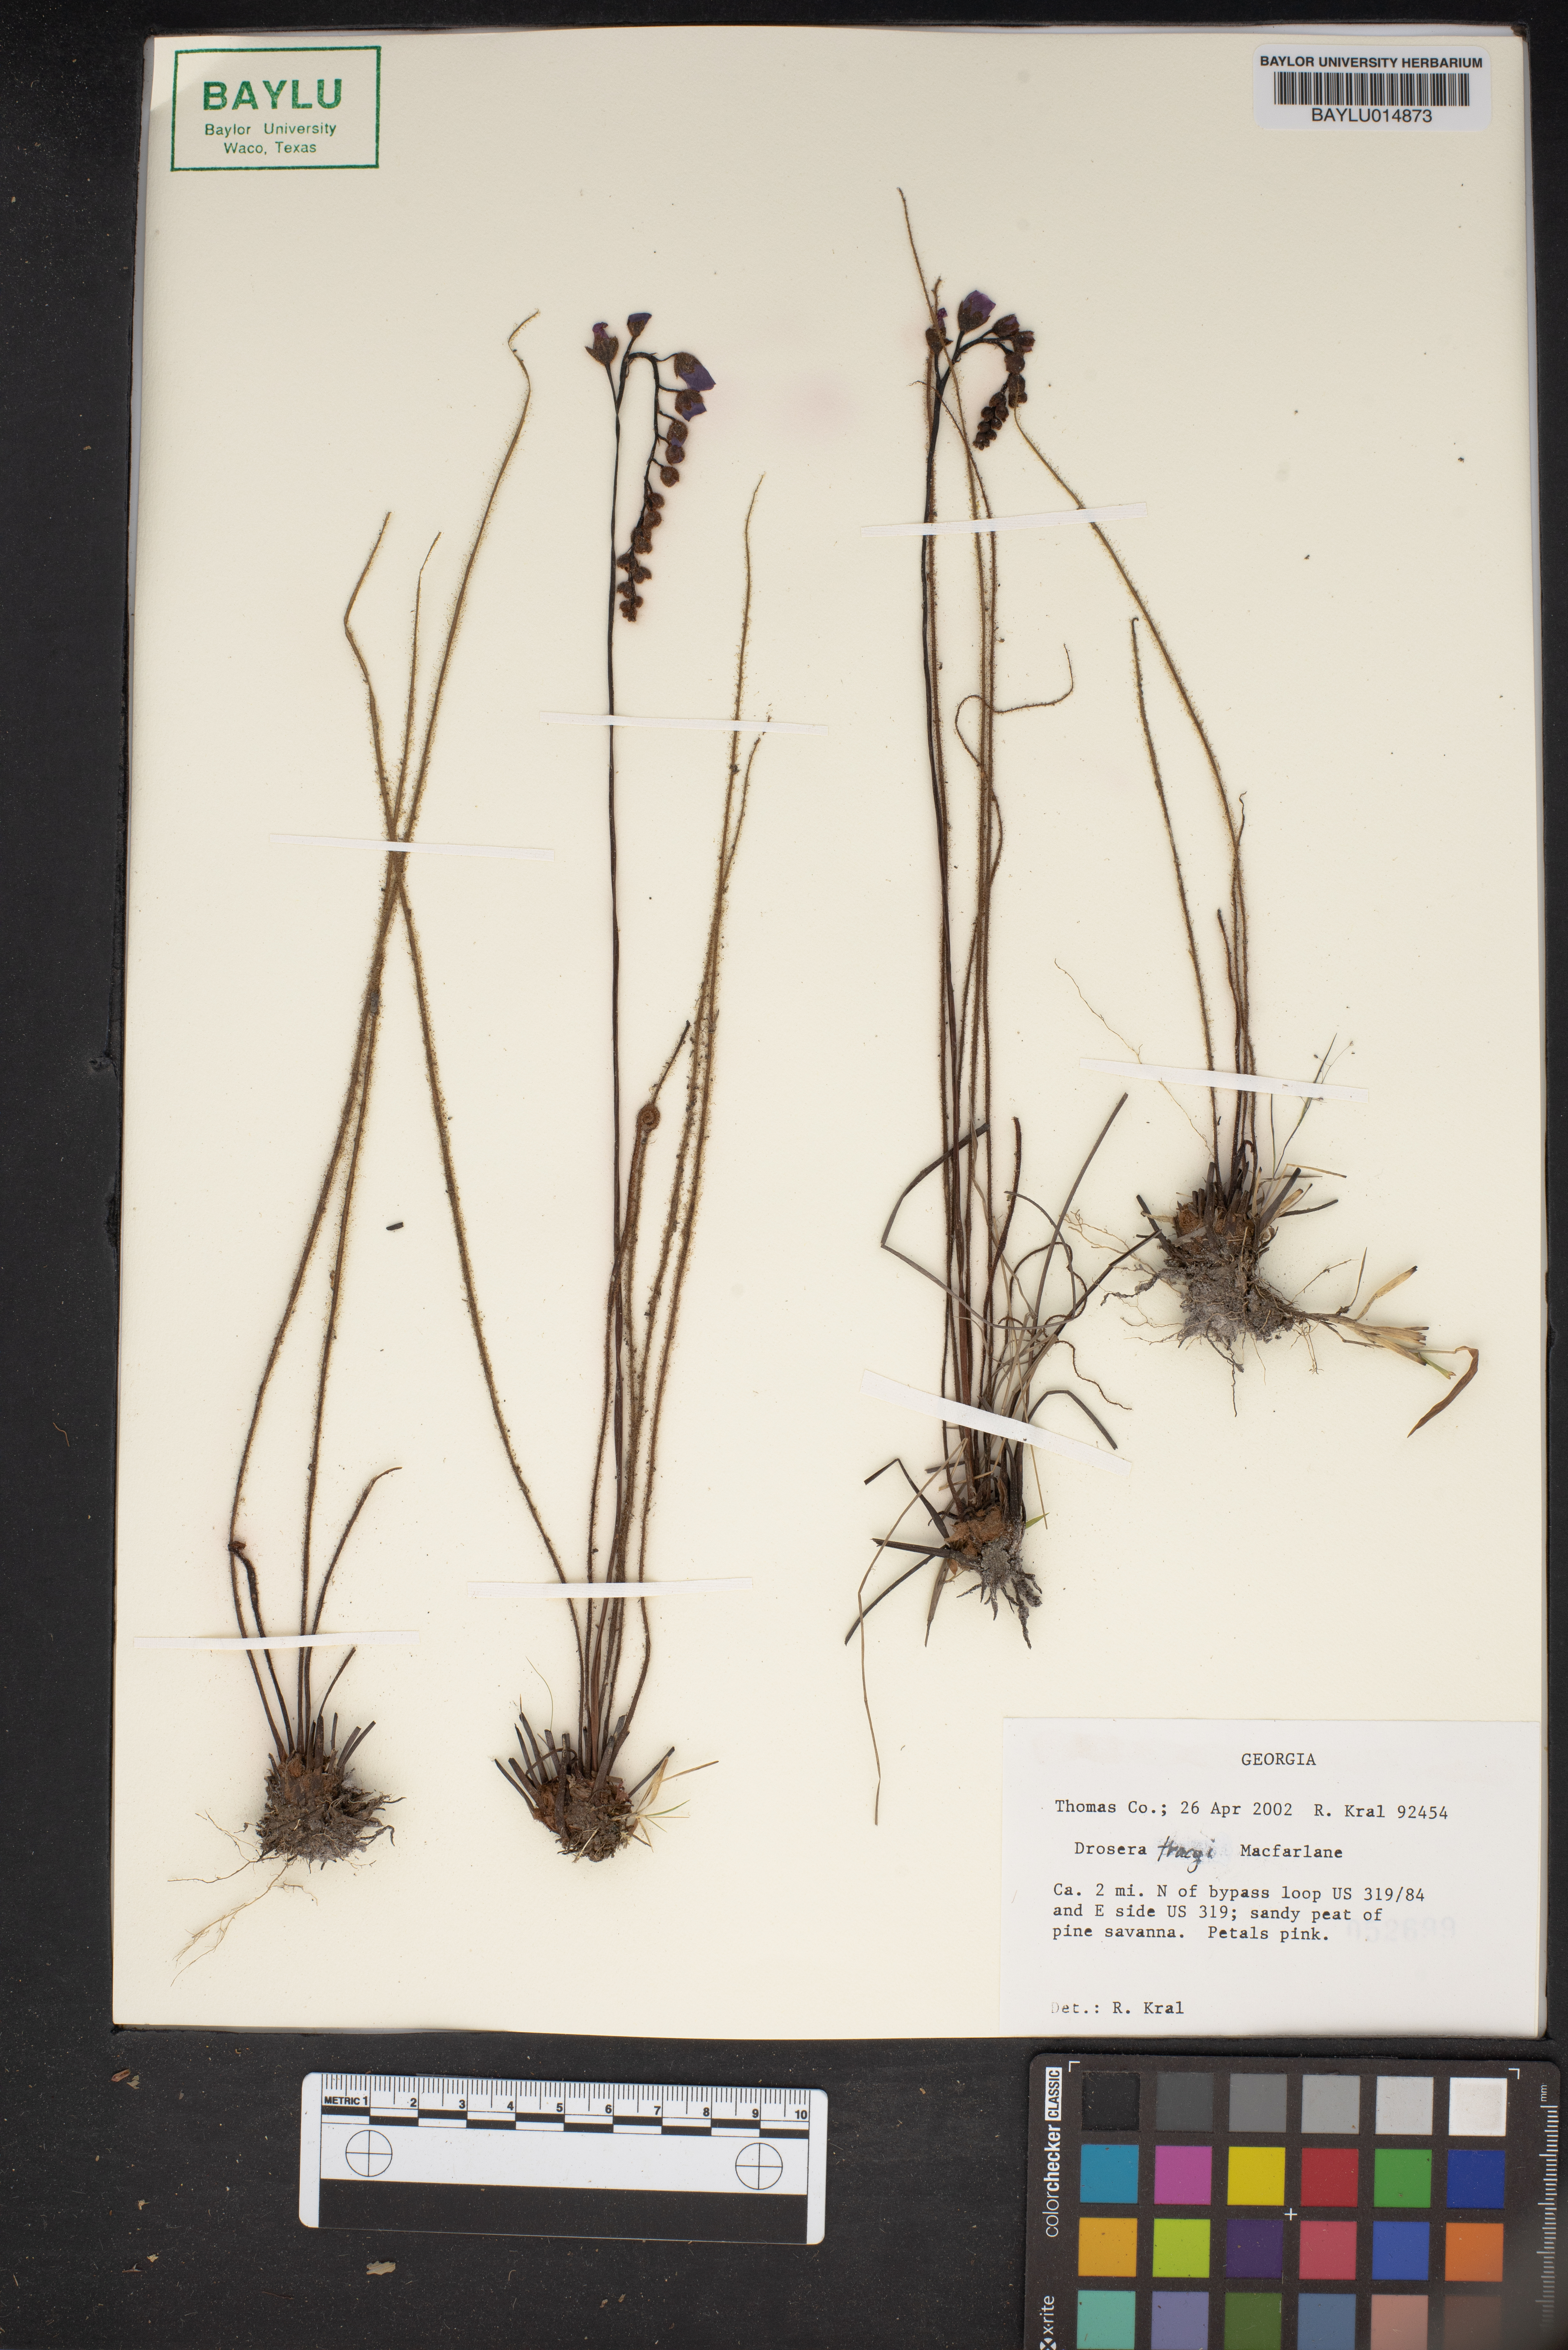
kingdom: Plantae
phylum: Tracheophyta
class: Magnoliopsida
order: Caryophyllales
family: Droseraceae
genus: Drosera
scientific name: Drosera filiformis
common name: Dew-thread
